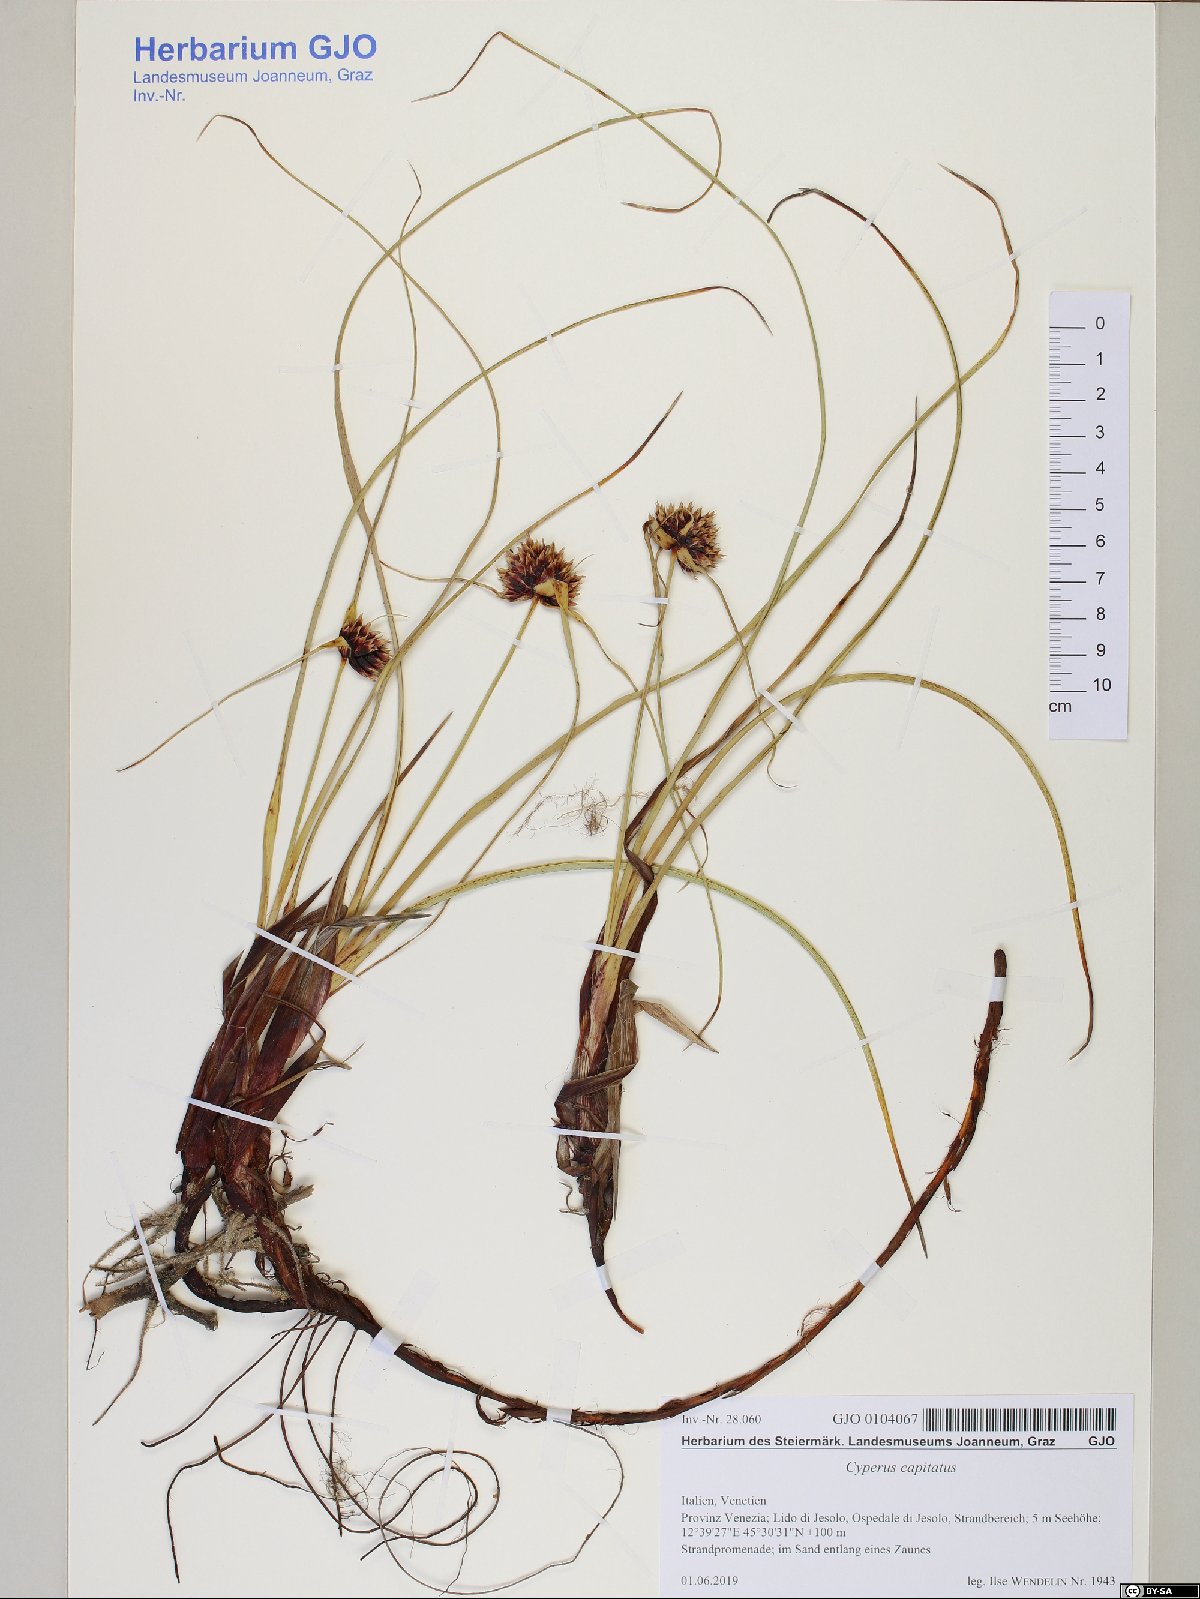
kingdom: Plantae
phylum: Tracheophyta
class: Liliopsida
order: Poales
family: Cyperaceae
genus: Cyperus
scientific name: Cyperus capitatus
